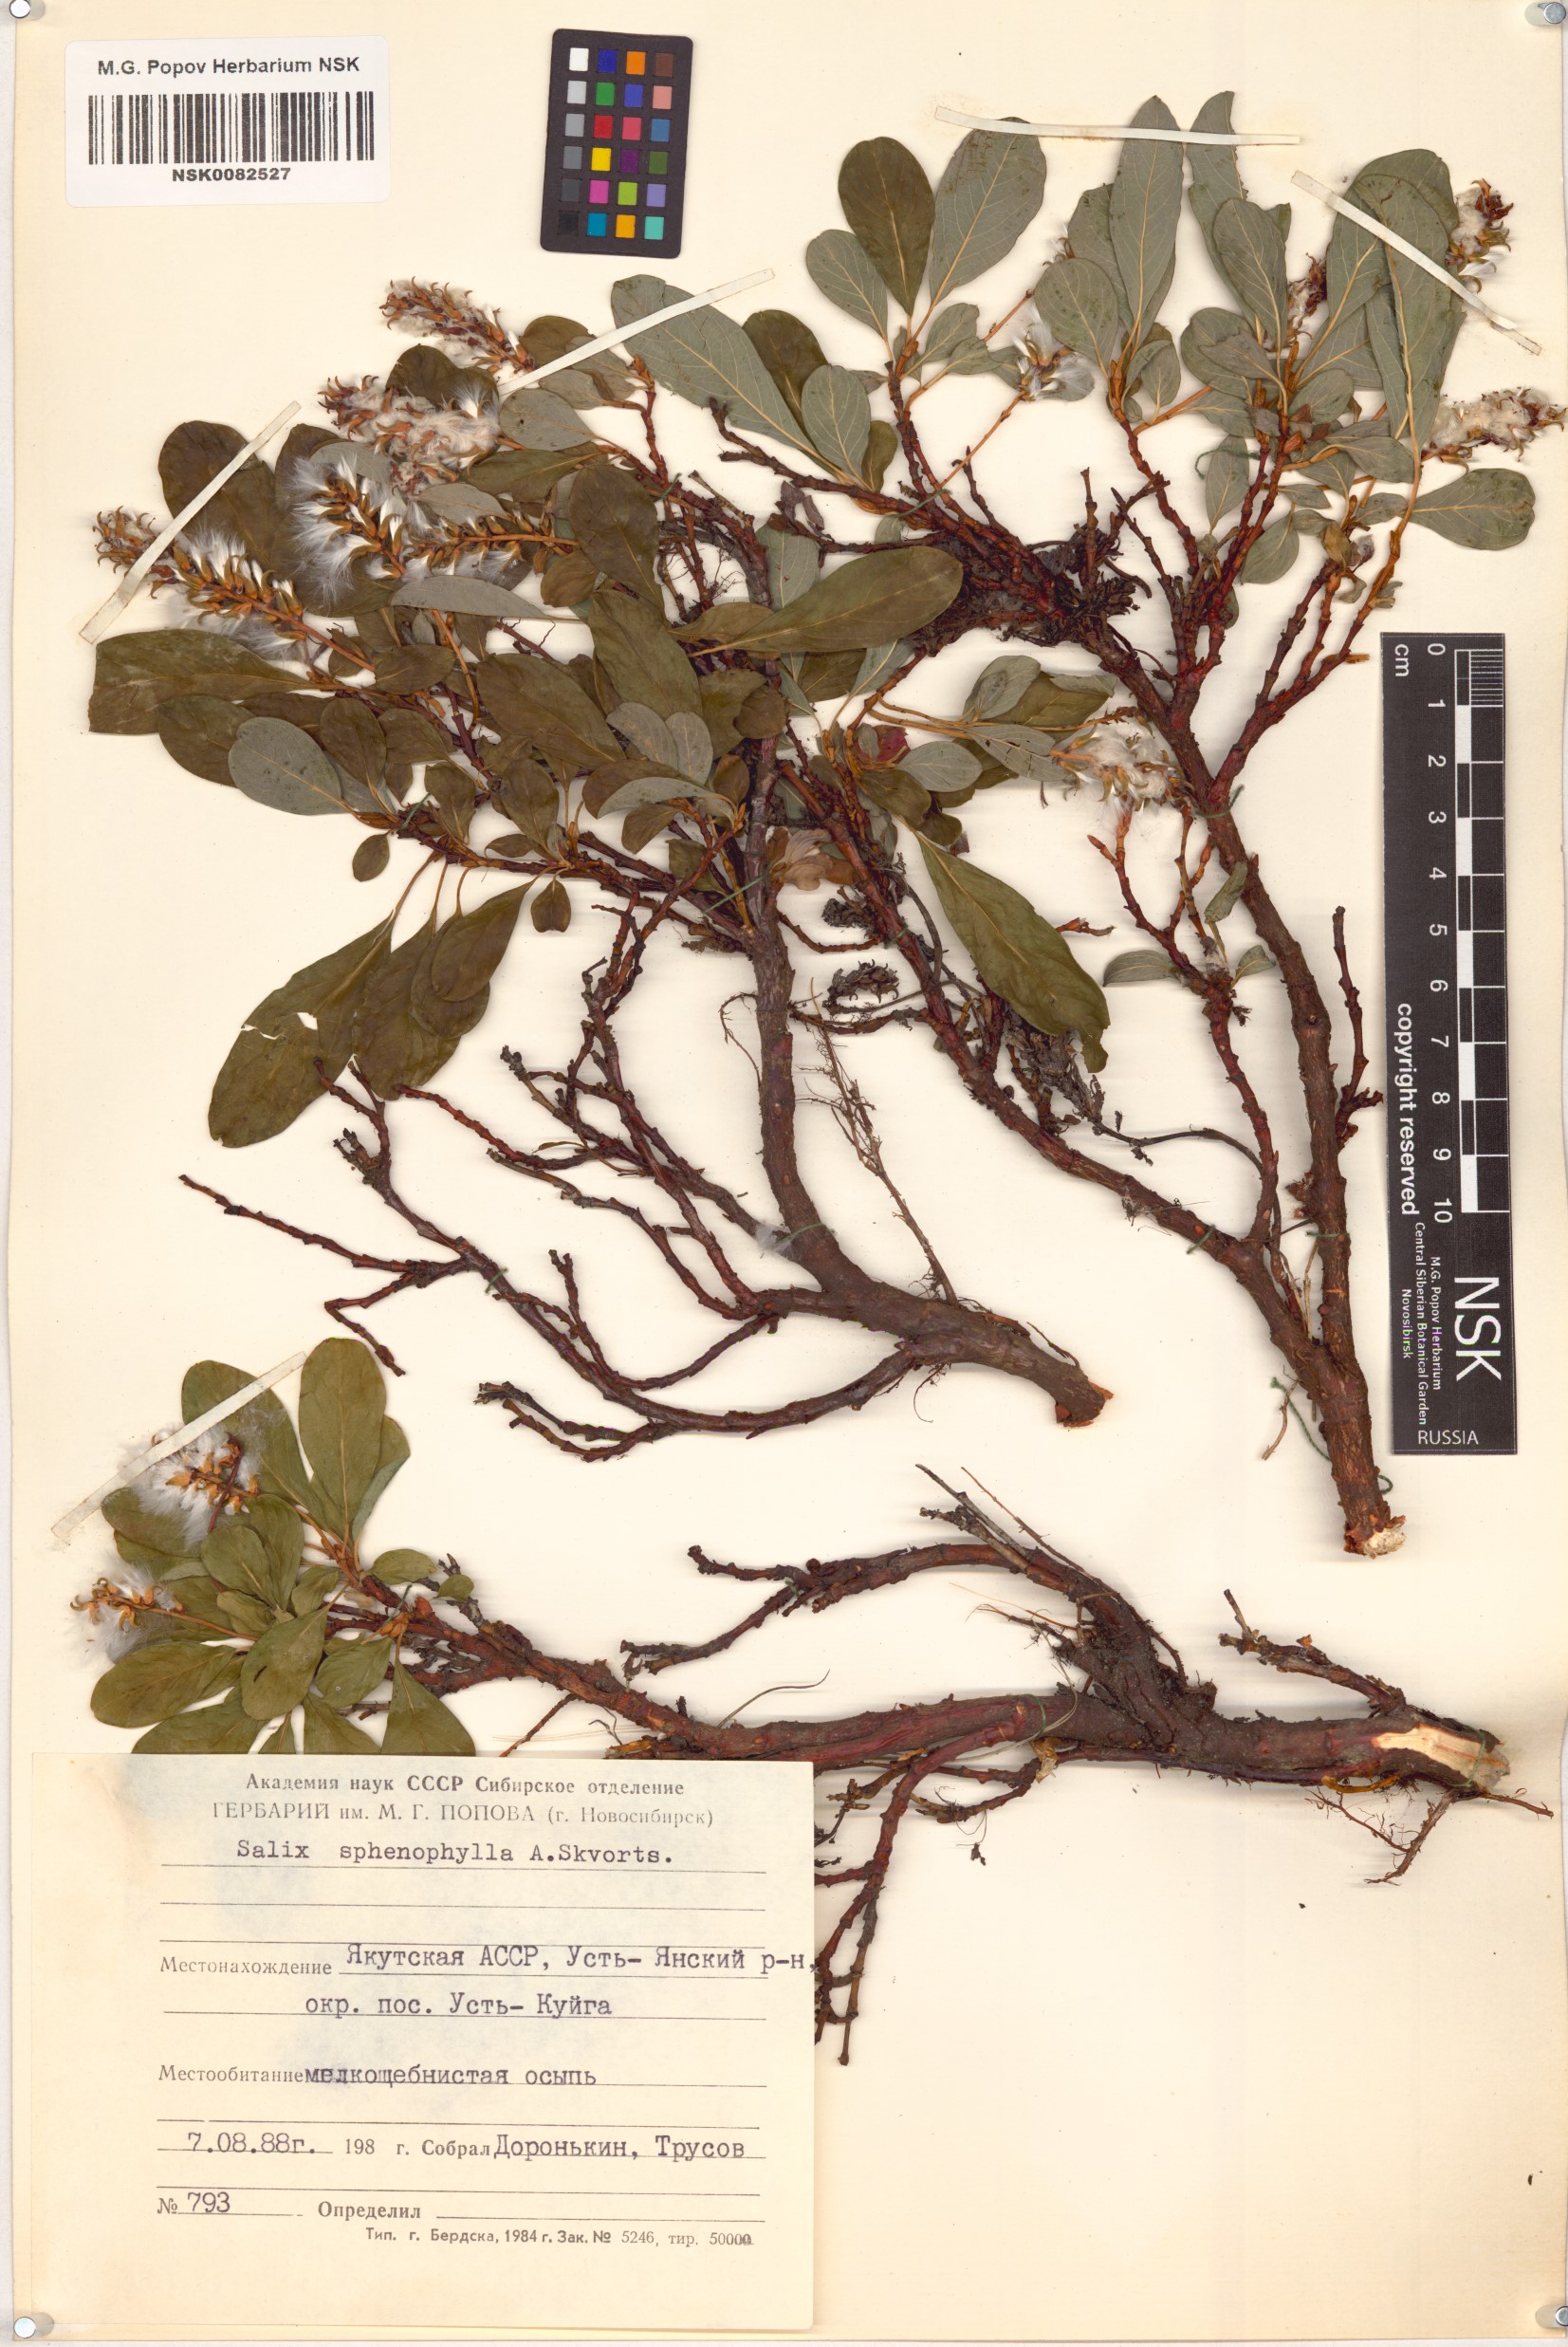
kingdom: Plantae
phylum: Tracheophyta
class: Magnoliopsida
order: Malpighiales
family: Salicaceae
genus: Salix
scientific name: Salix sphenophylla
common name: Wedge-leaved willow
